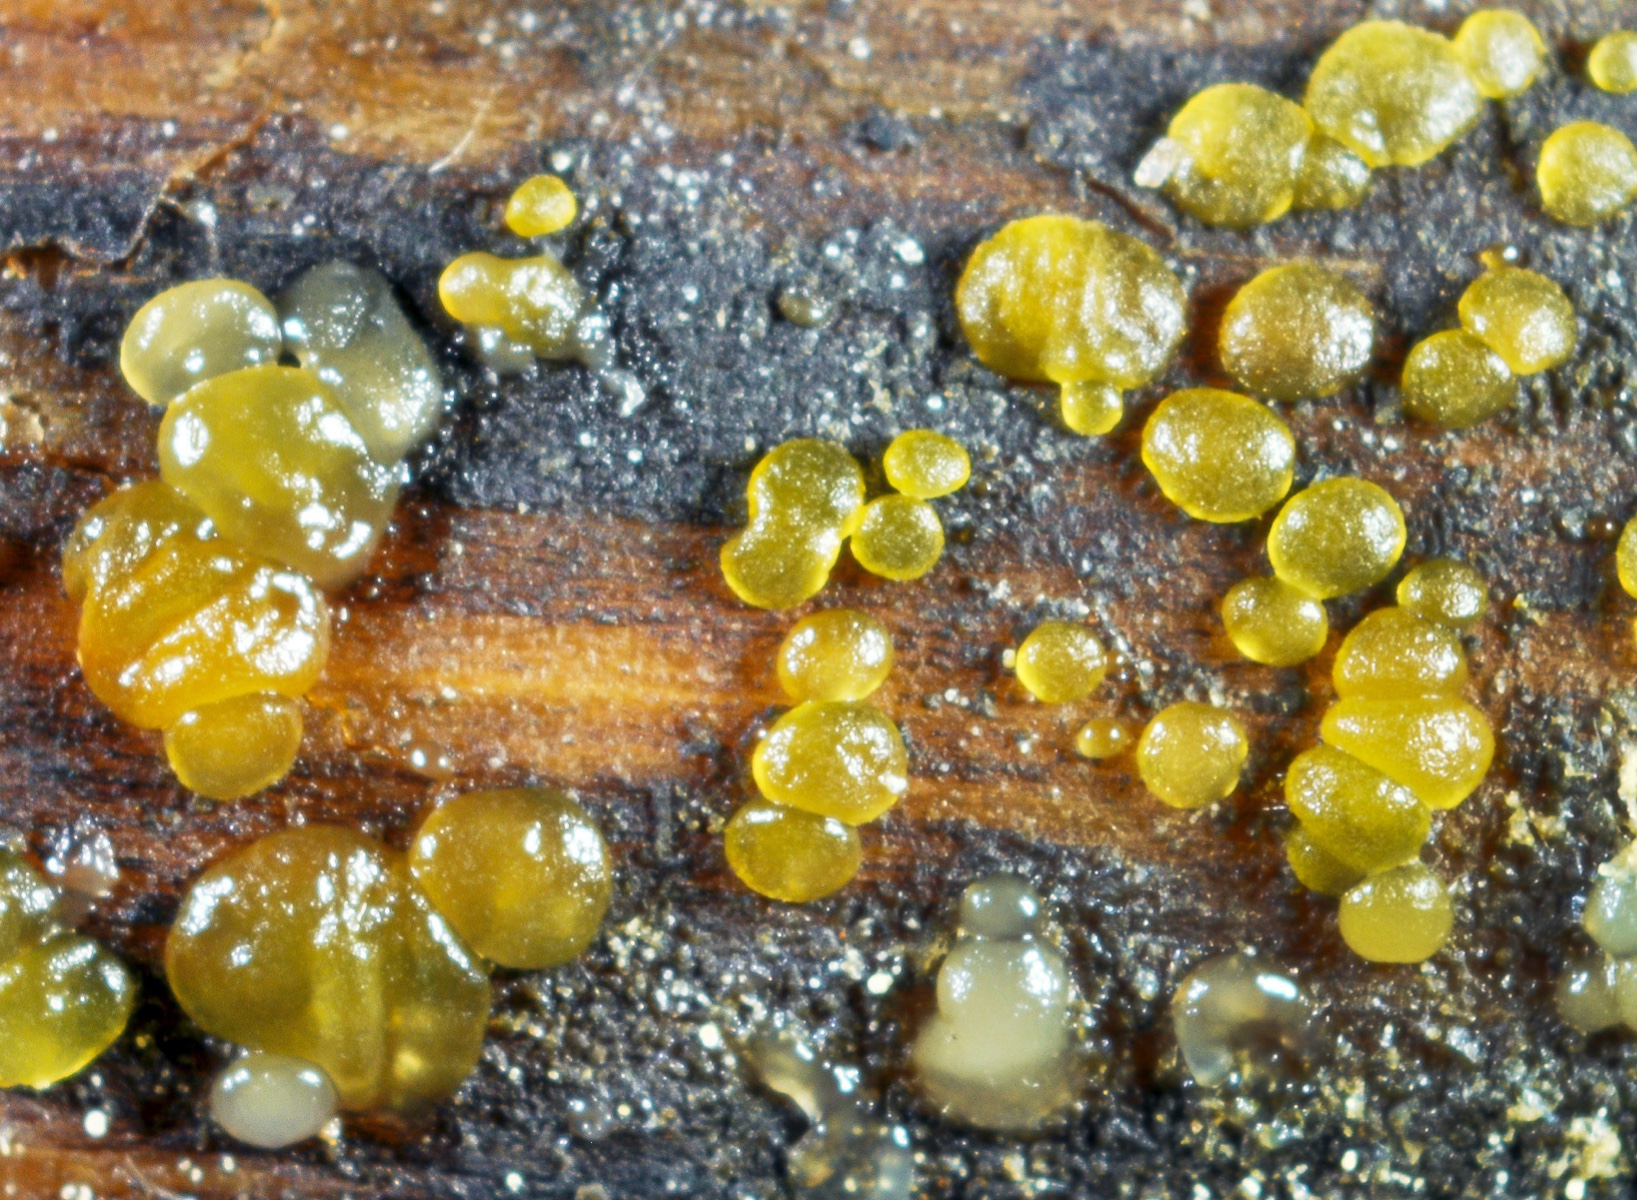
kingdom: Fungi
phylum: Basidiomycota
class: Dacrymycetes
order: Dacrymycetales
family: Dacrymycetaceae
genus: Dacrymyces
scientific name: Dacrymyces minor
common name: lille tåresvamp
